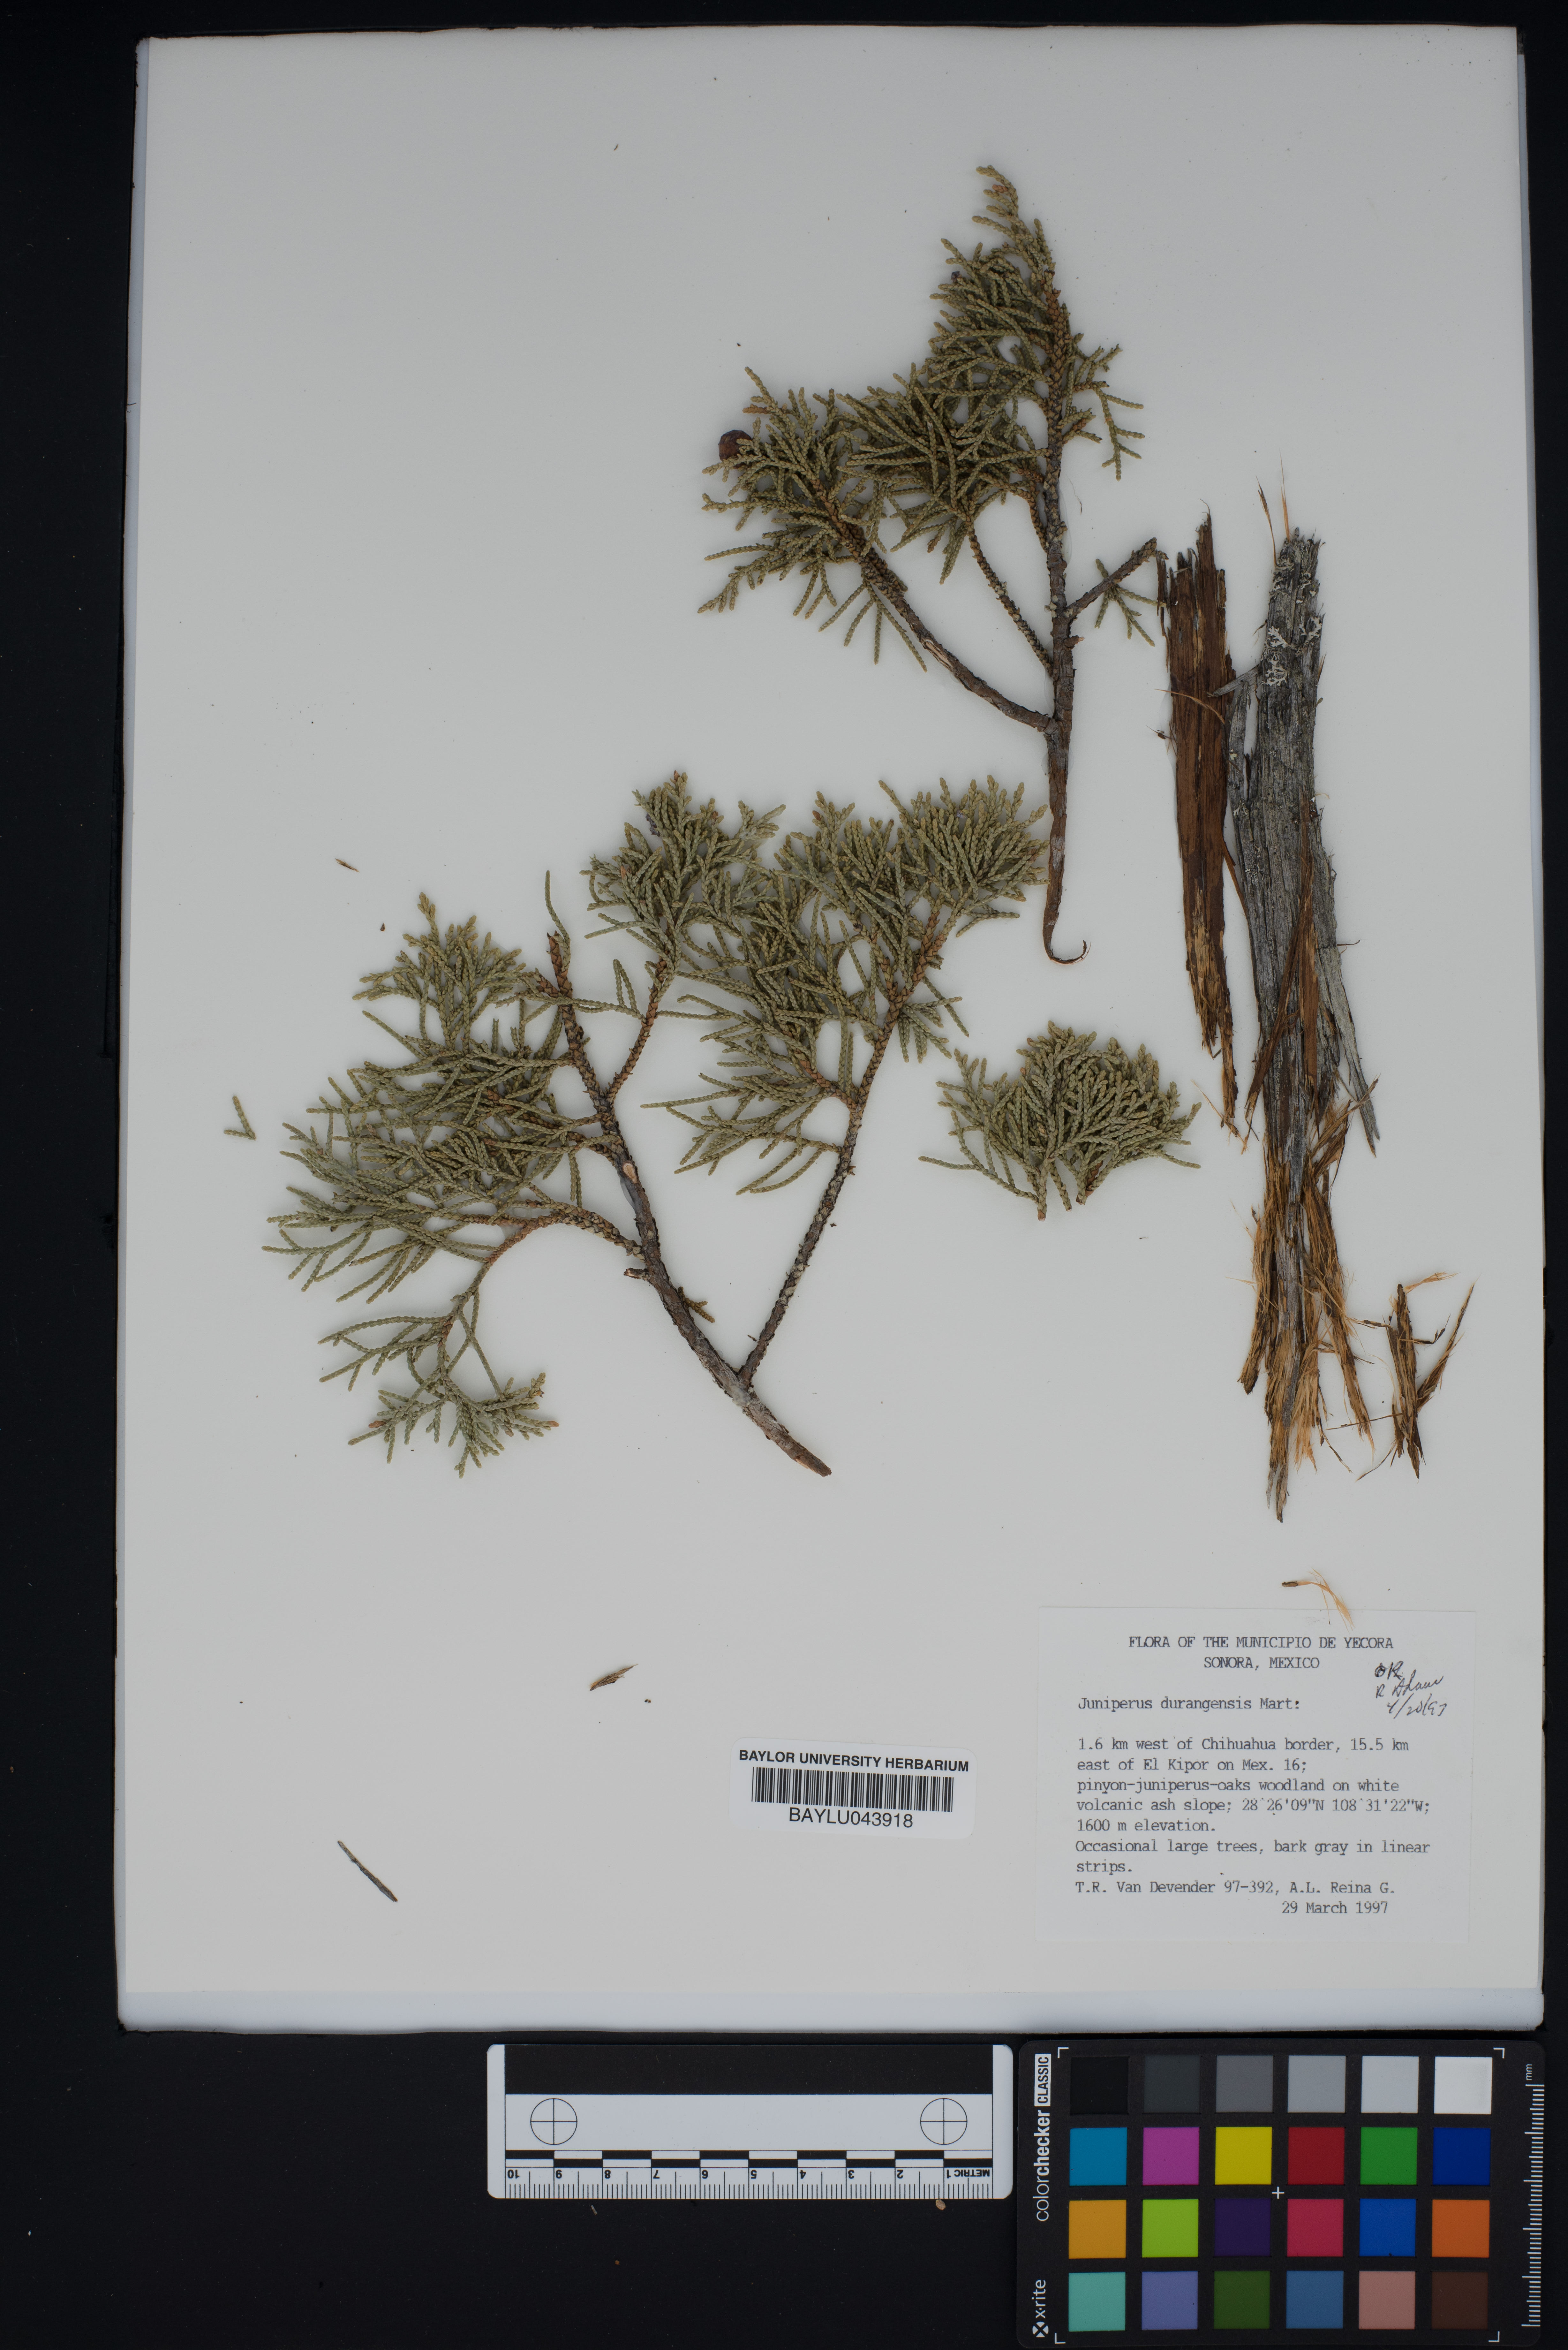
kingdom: Plantae
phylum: Tracheophyta
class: Pinopsida
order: Pinales
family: Cupressaceae
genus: Juniperus
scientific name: Juniperus durangensis
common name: Durango juniper
